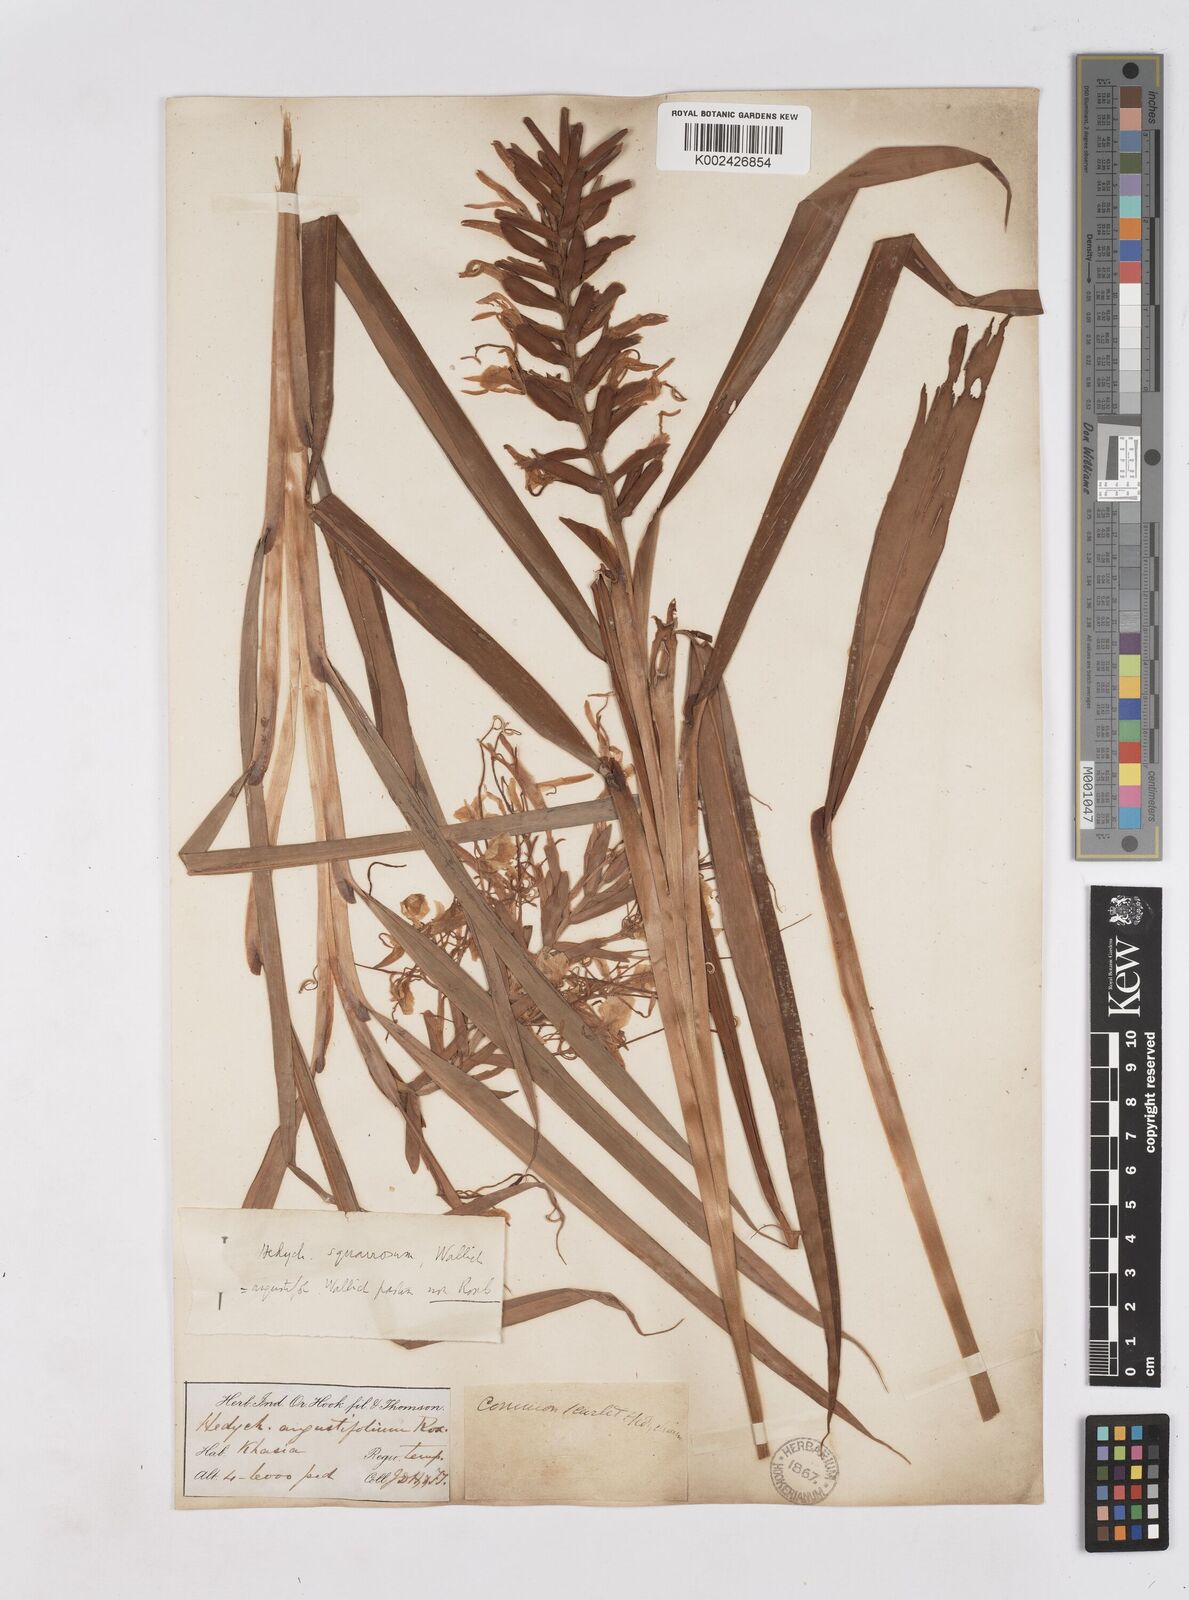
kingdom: Plantae
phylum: Tracheophyta
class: Liliopsida
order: Zingiberales
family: Zingiberaceae
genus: Hedychium
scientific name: Hedychium coccineum
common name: Red ginger-lily
